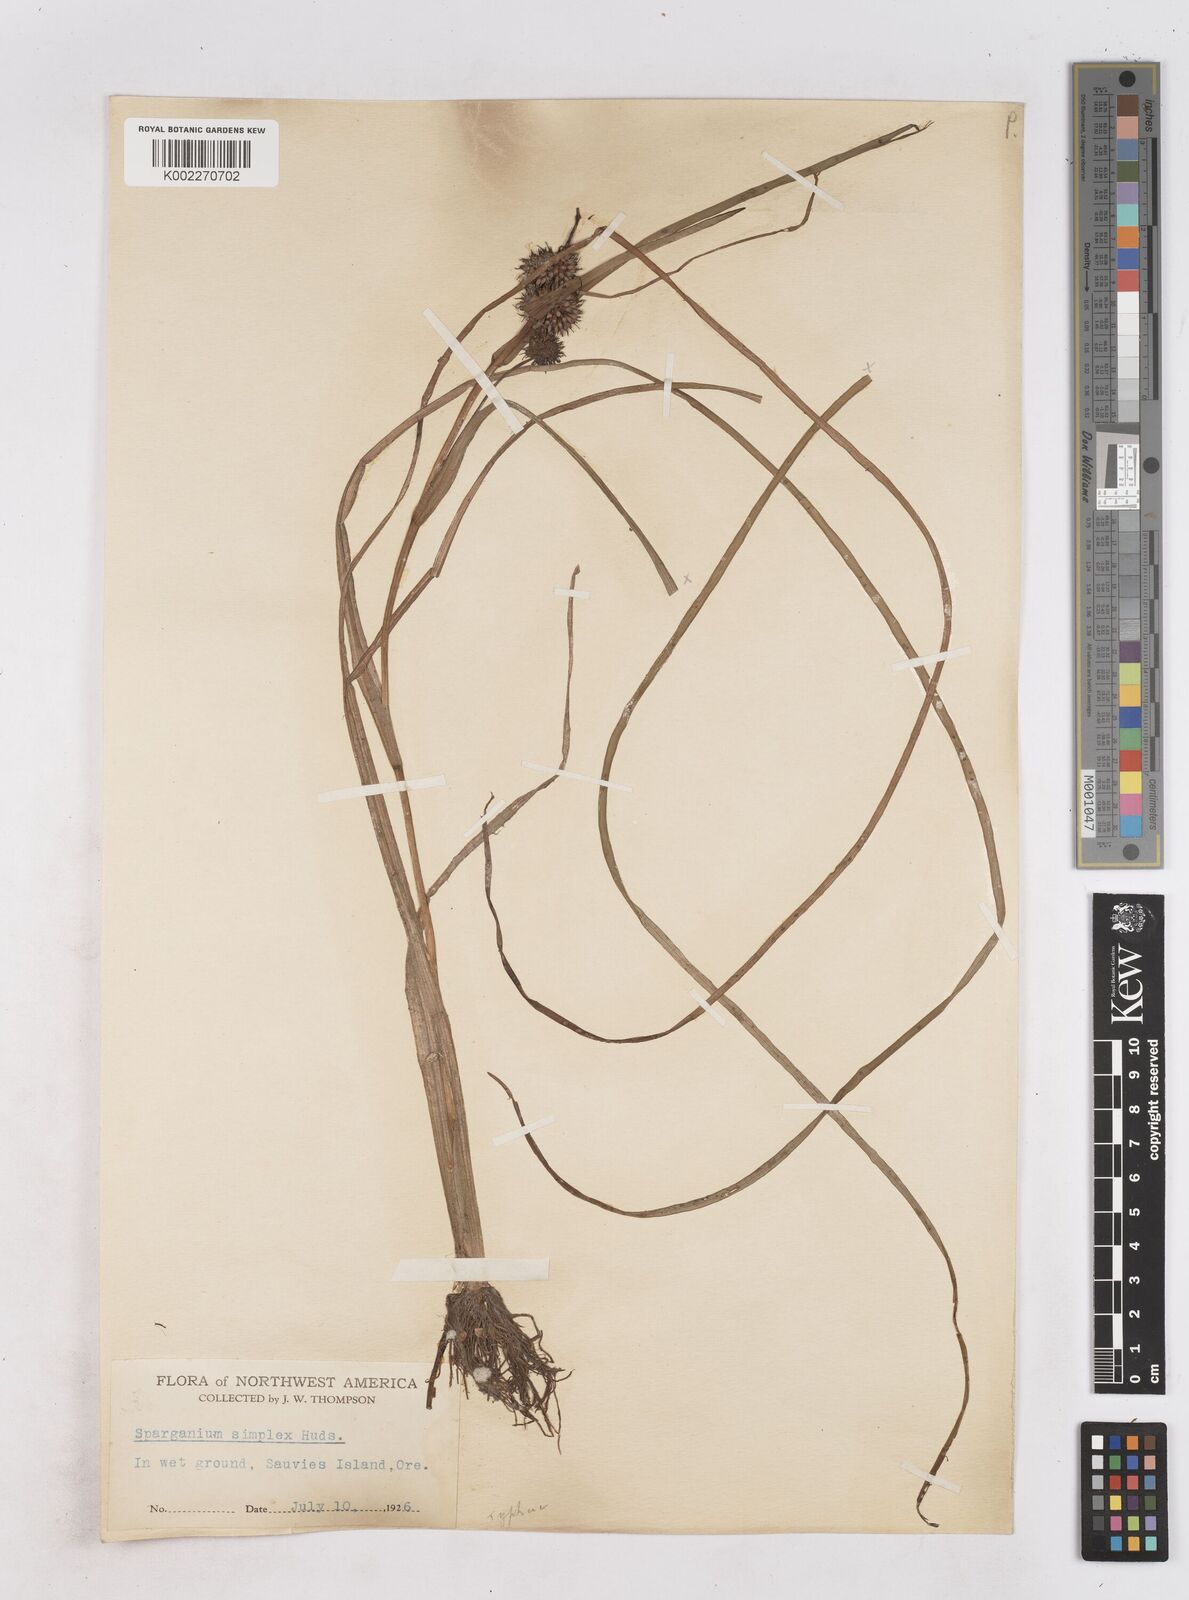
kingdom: Plantae
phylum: Tracheophyta
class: Liliopsida
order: Poales
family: Typhaceae
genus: Sparganium
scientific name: Sparganium emersum
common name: Unbranched bur-reed
